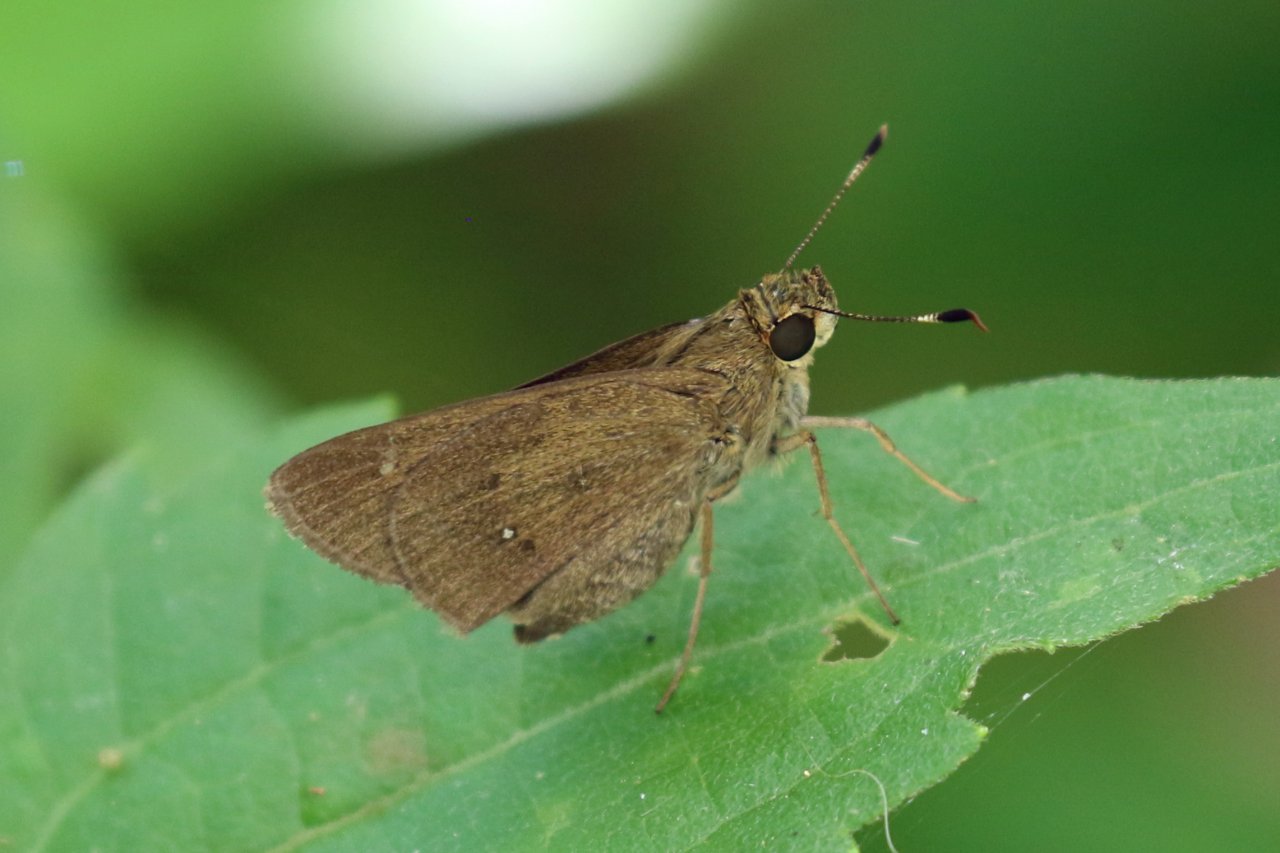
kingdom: Animalia
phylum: Arthropoda
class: Insecta
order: Lepidoptera
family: Hesperiidae
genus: Decinea
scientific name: Decinea percosius
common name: Double-dotted Skipper
